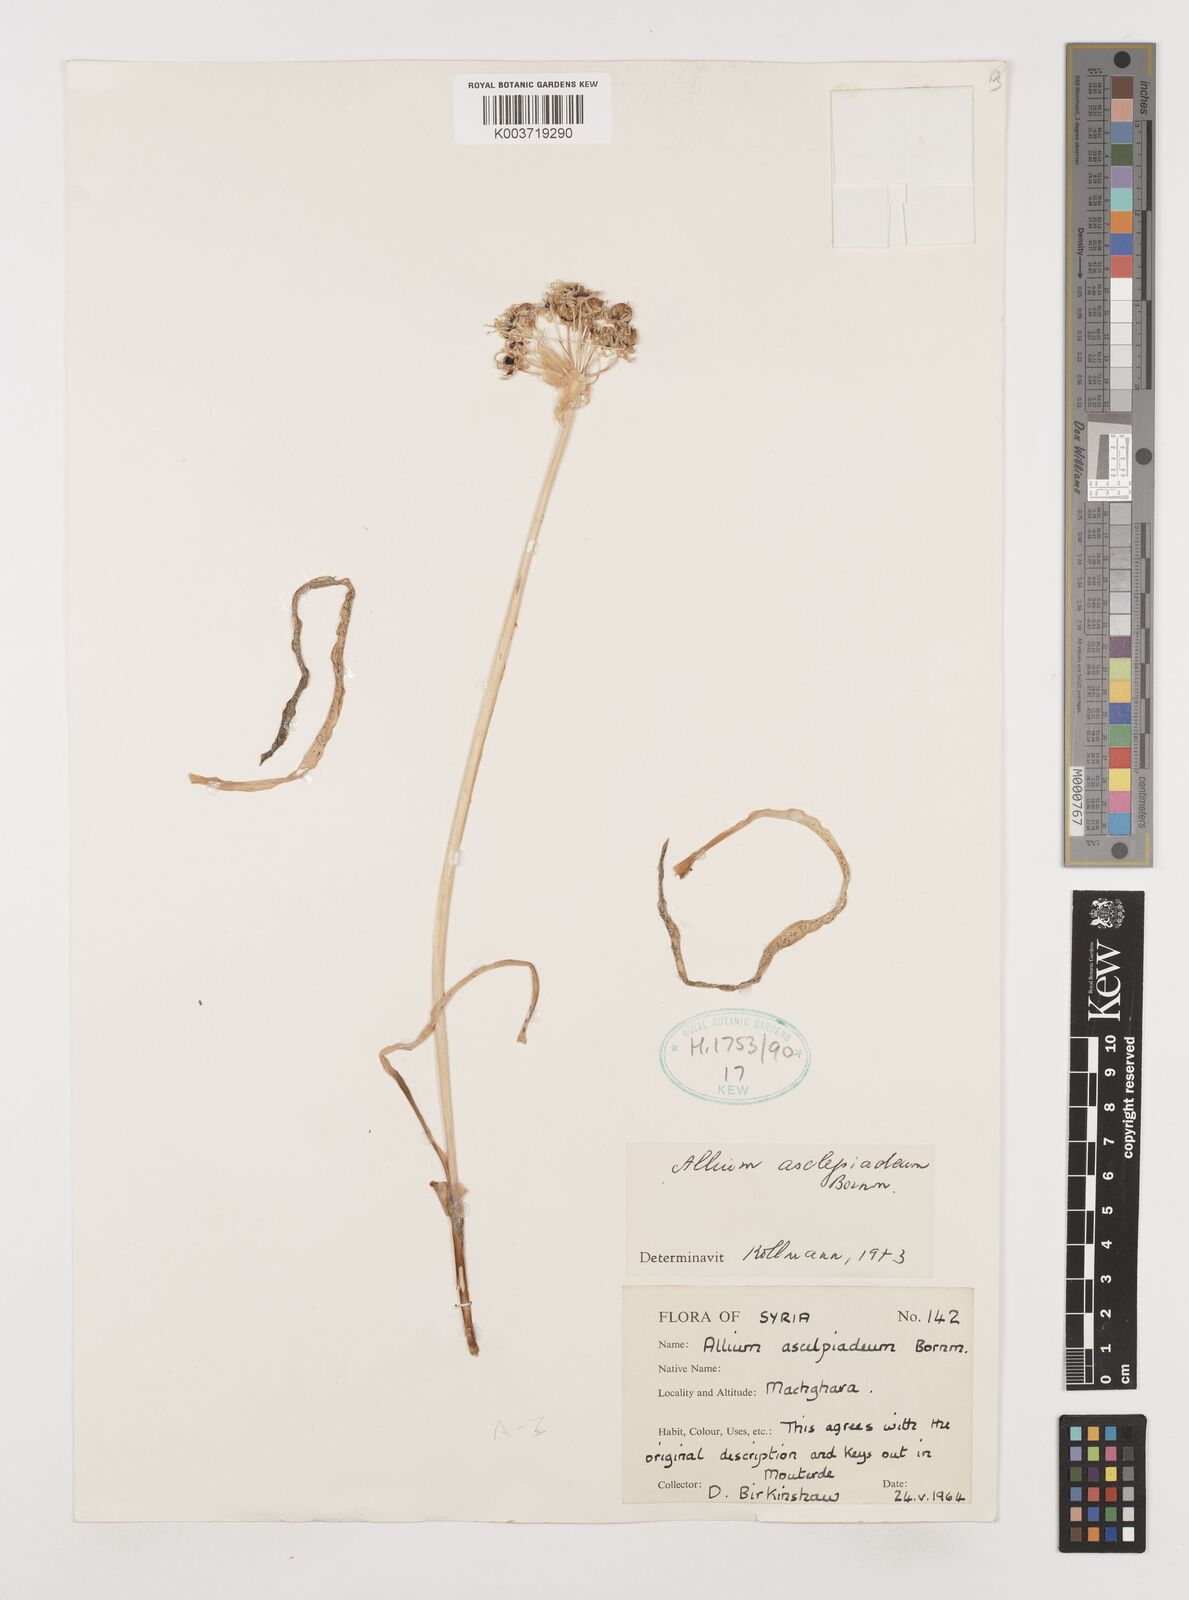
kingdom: Plantae
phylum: Tracheophyta
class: Liliopsida
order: Asparagales
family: Amaryllidaceae
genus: Allium
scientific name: Allium asclepiadeum
